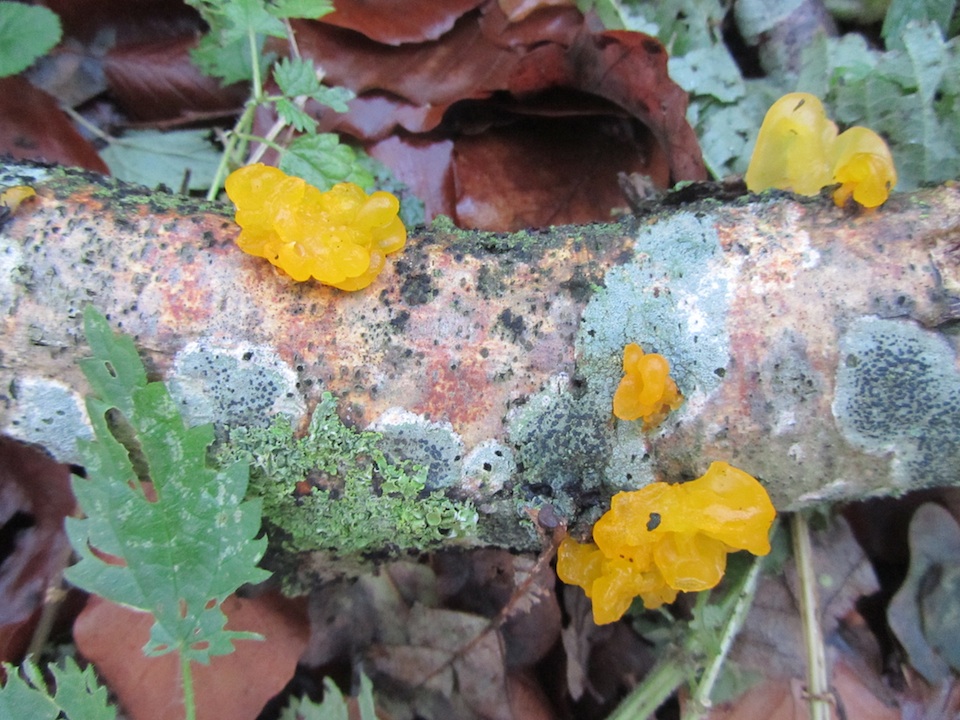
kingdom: Fungi
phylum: Basidiomycota
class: Tremellomycetes
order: Tremellales
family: Tremellaceae
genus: Tremella
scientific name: Tremella mesenterica
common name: gul bævresvamp
